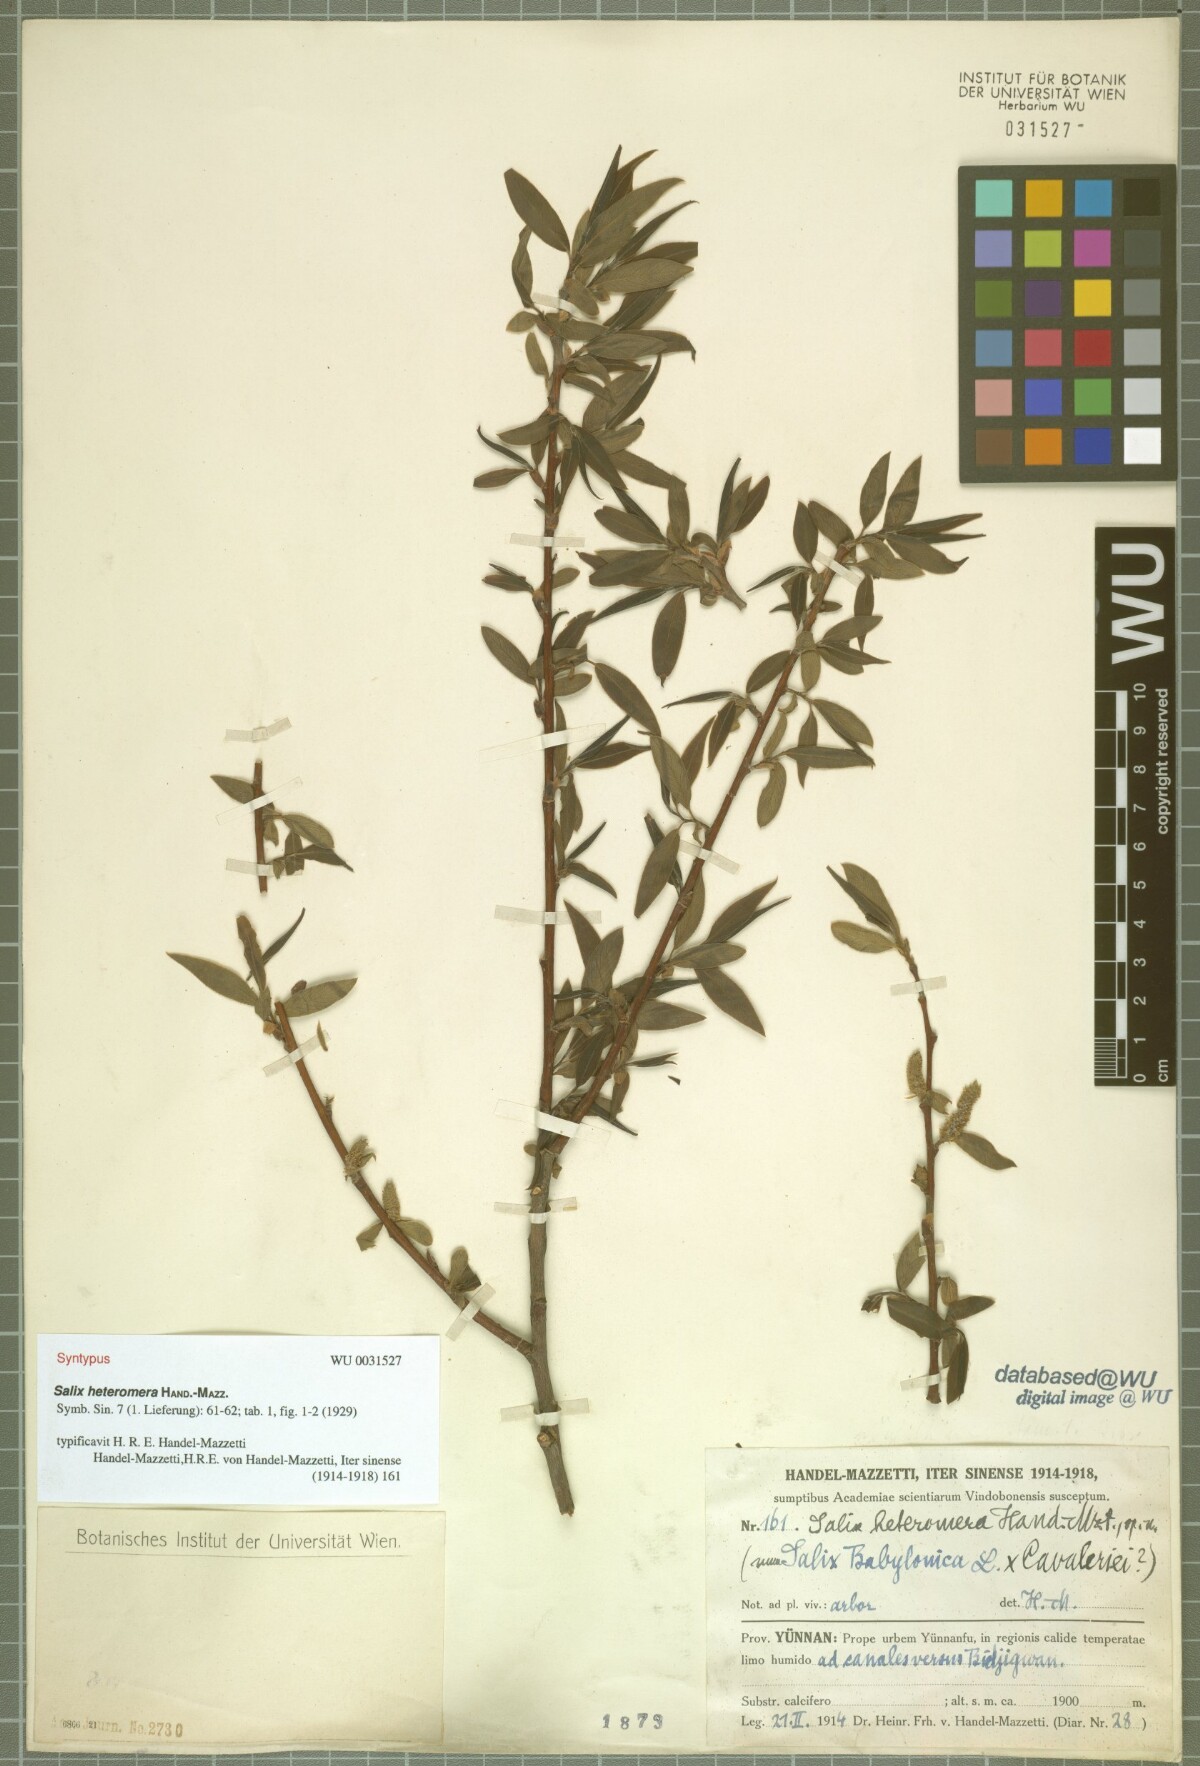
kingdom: Plantae
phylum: Tracheophyta
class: Magnoliopsida
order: Malpighiales
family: Salicaceae
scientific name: Salicaceae
